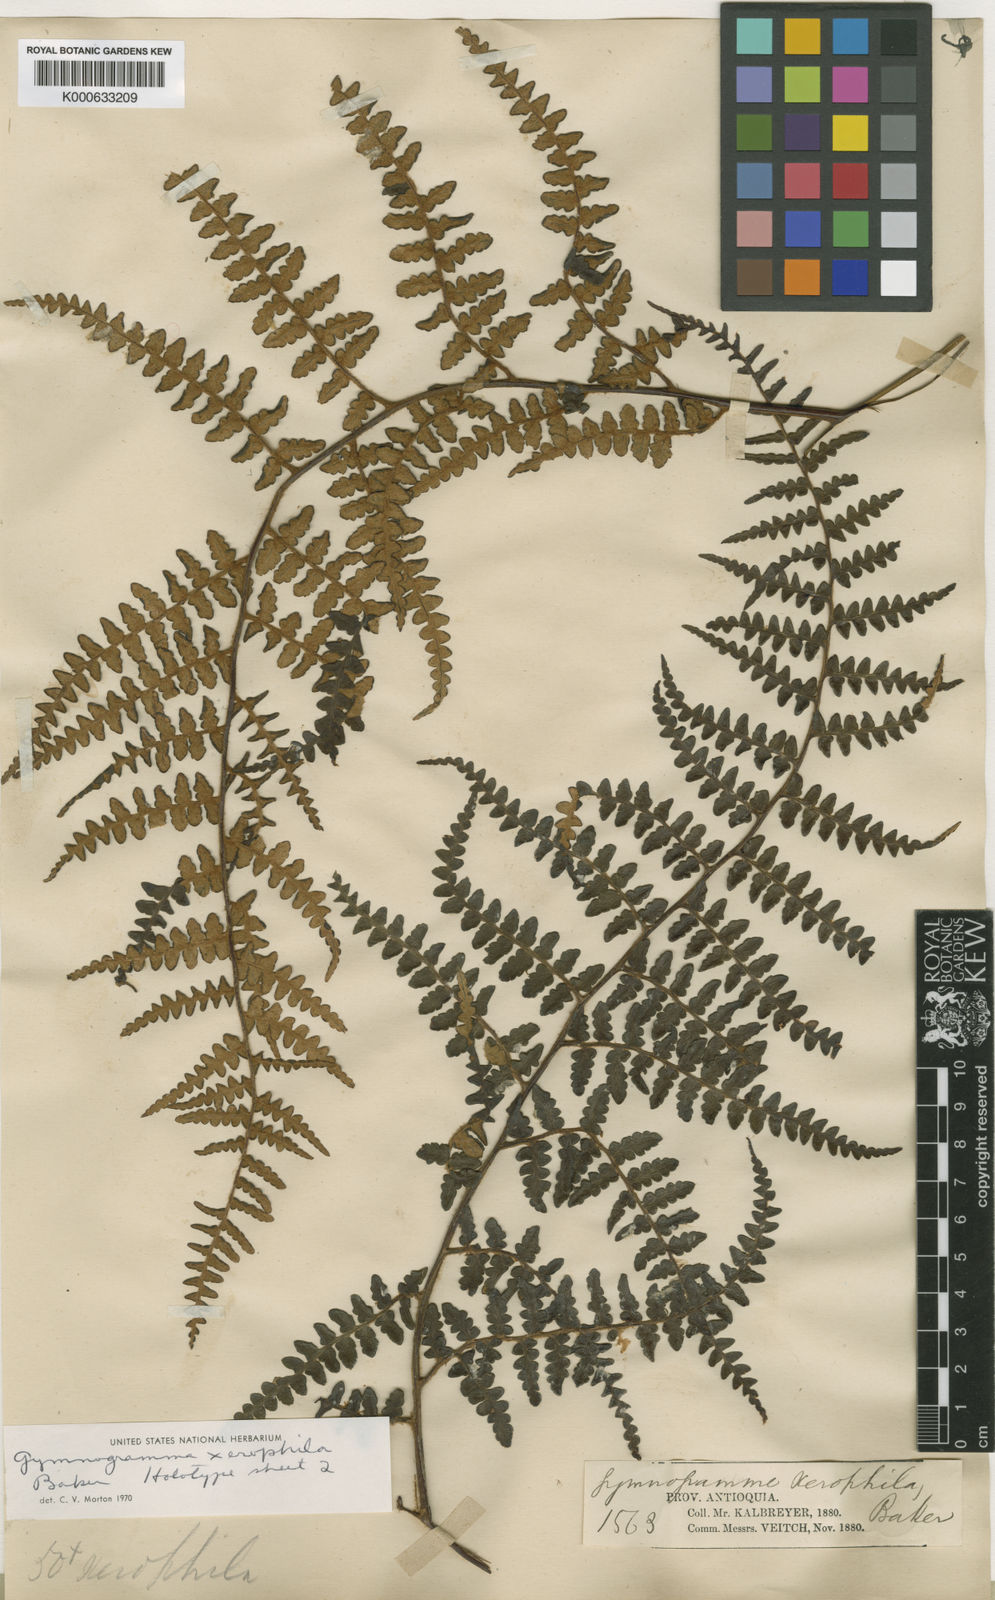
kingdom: Plantae
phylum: Tracheophyta
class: Polypodiopsida
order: Polypodiales
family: Pteridaceae
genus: Pityrogramma
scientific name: Pityrogramma jamesonii
